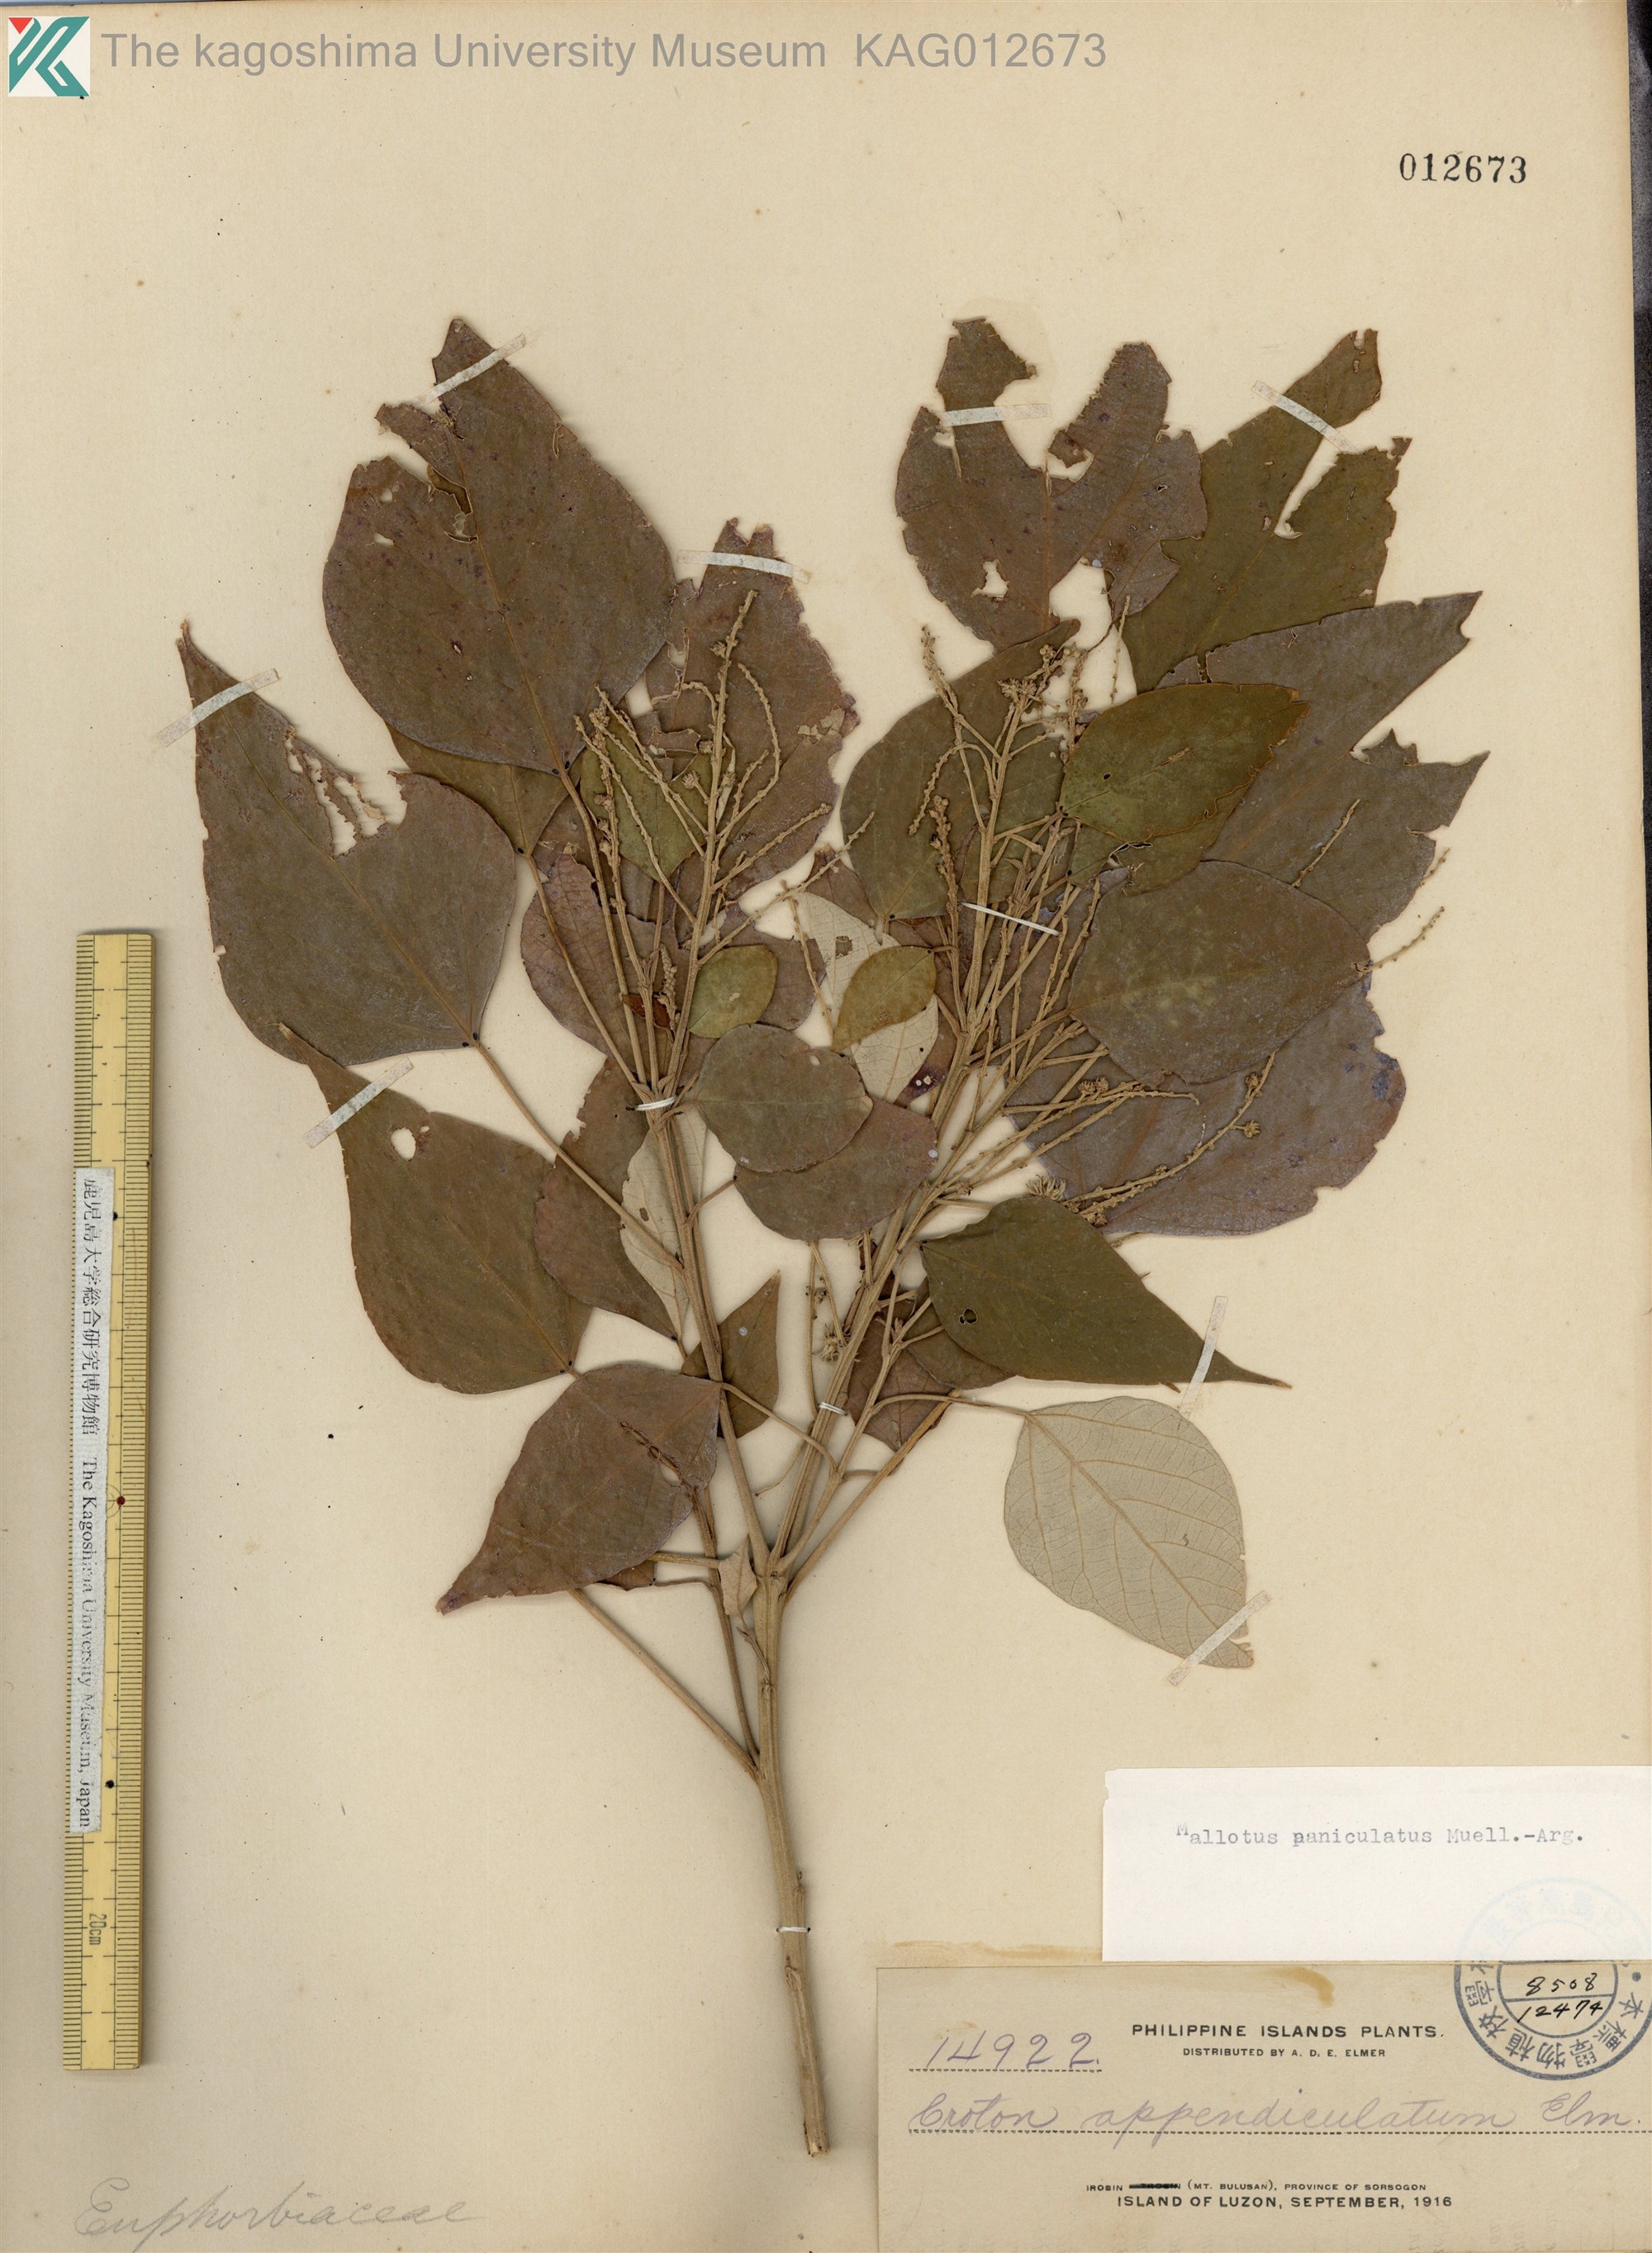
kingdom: Plantae
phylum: Tracheophyta
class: Magnoliopsida
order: Malpighiales
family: Euphorbiaceae
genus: Mallotus
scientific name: Mallotus paniculatus
